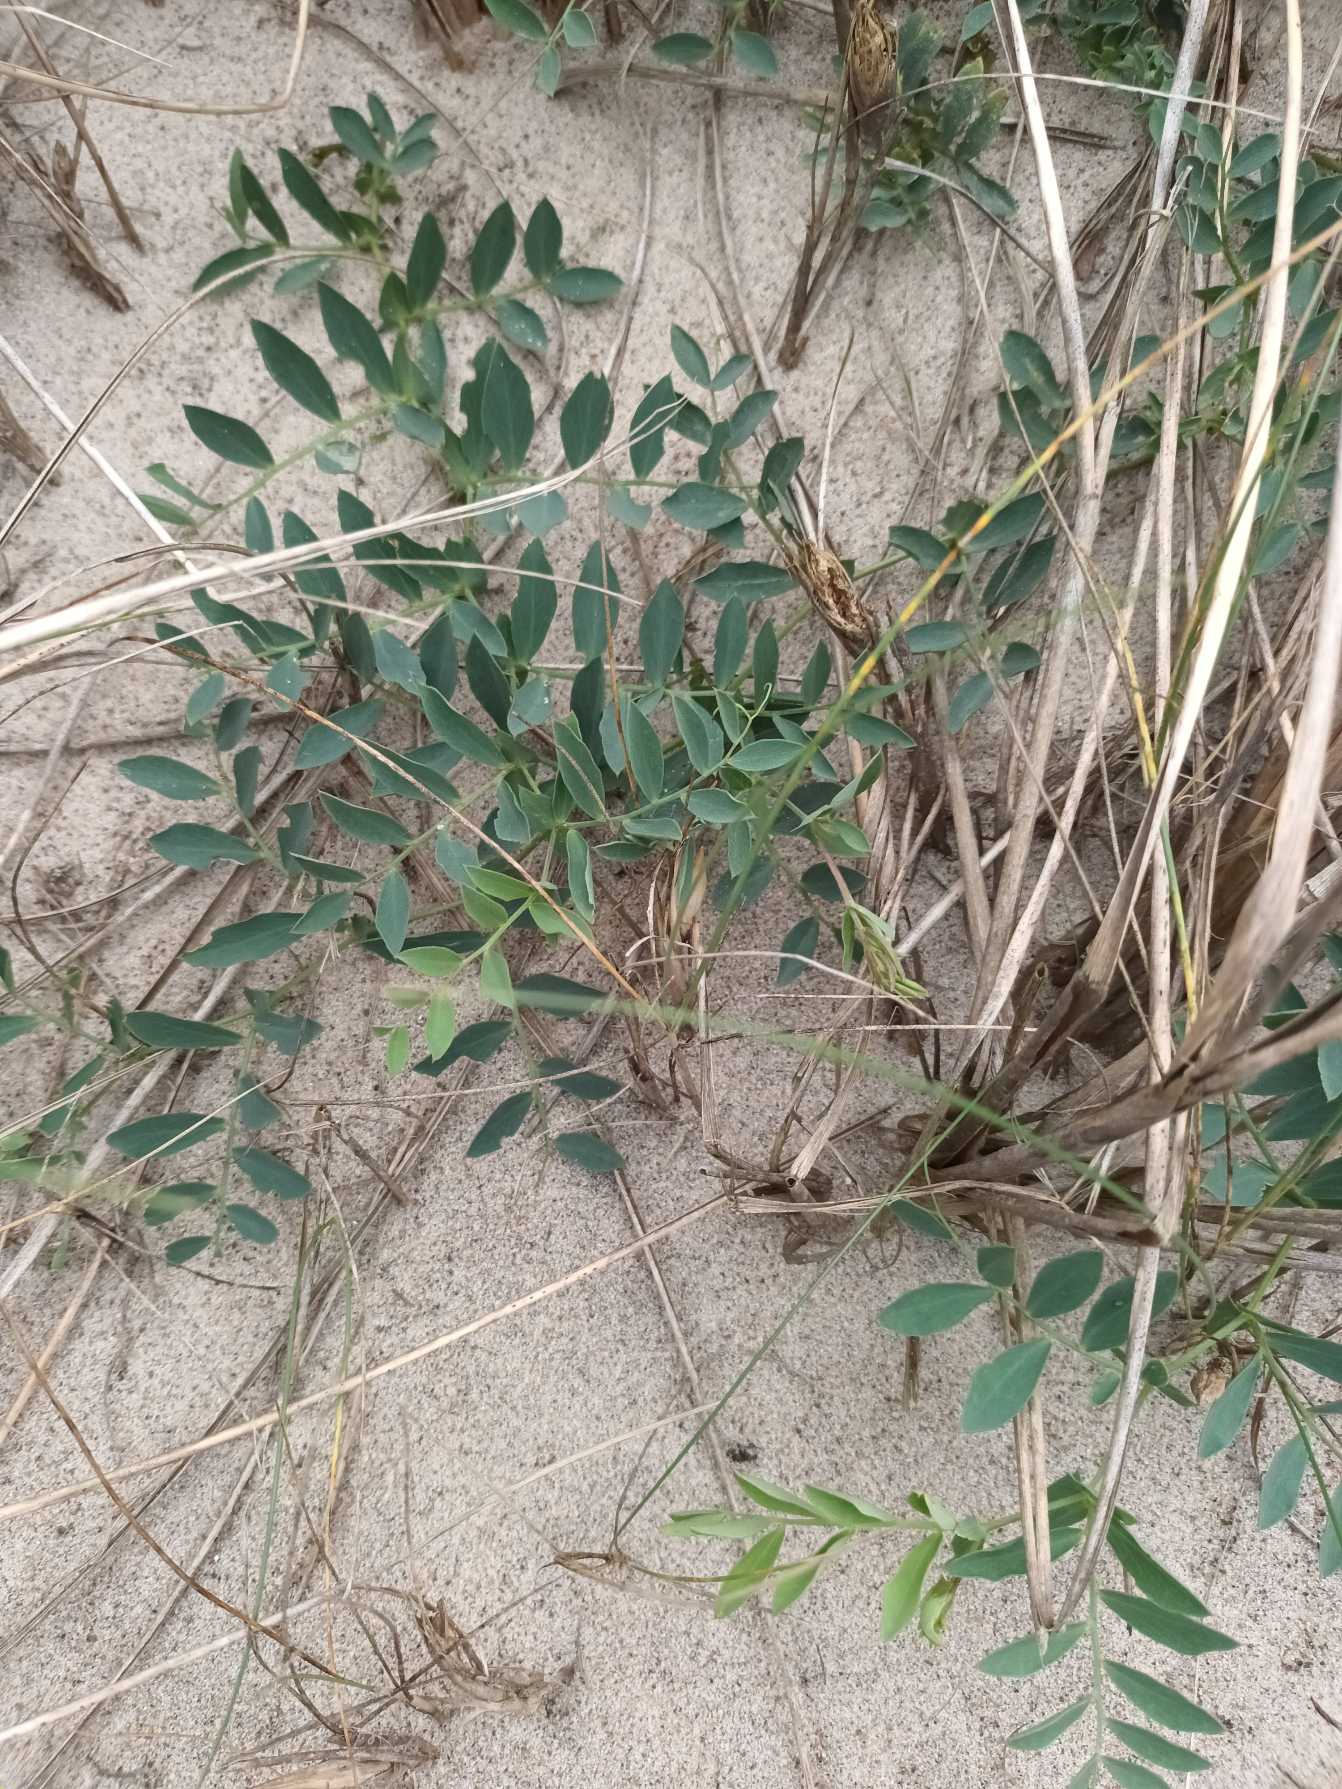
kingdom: Plantae
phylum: Tracheophyta
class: Magnoliopsida
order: Fabales
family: Fabaceae
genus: Lathyrus
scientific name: Lathyrus japonicus
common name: Klit-fladbælg
